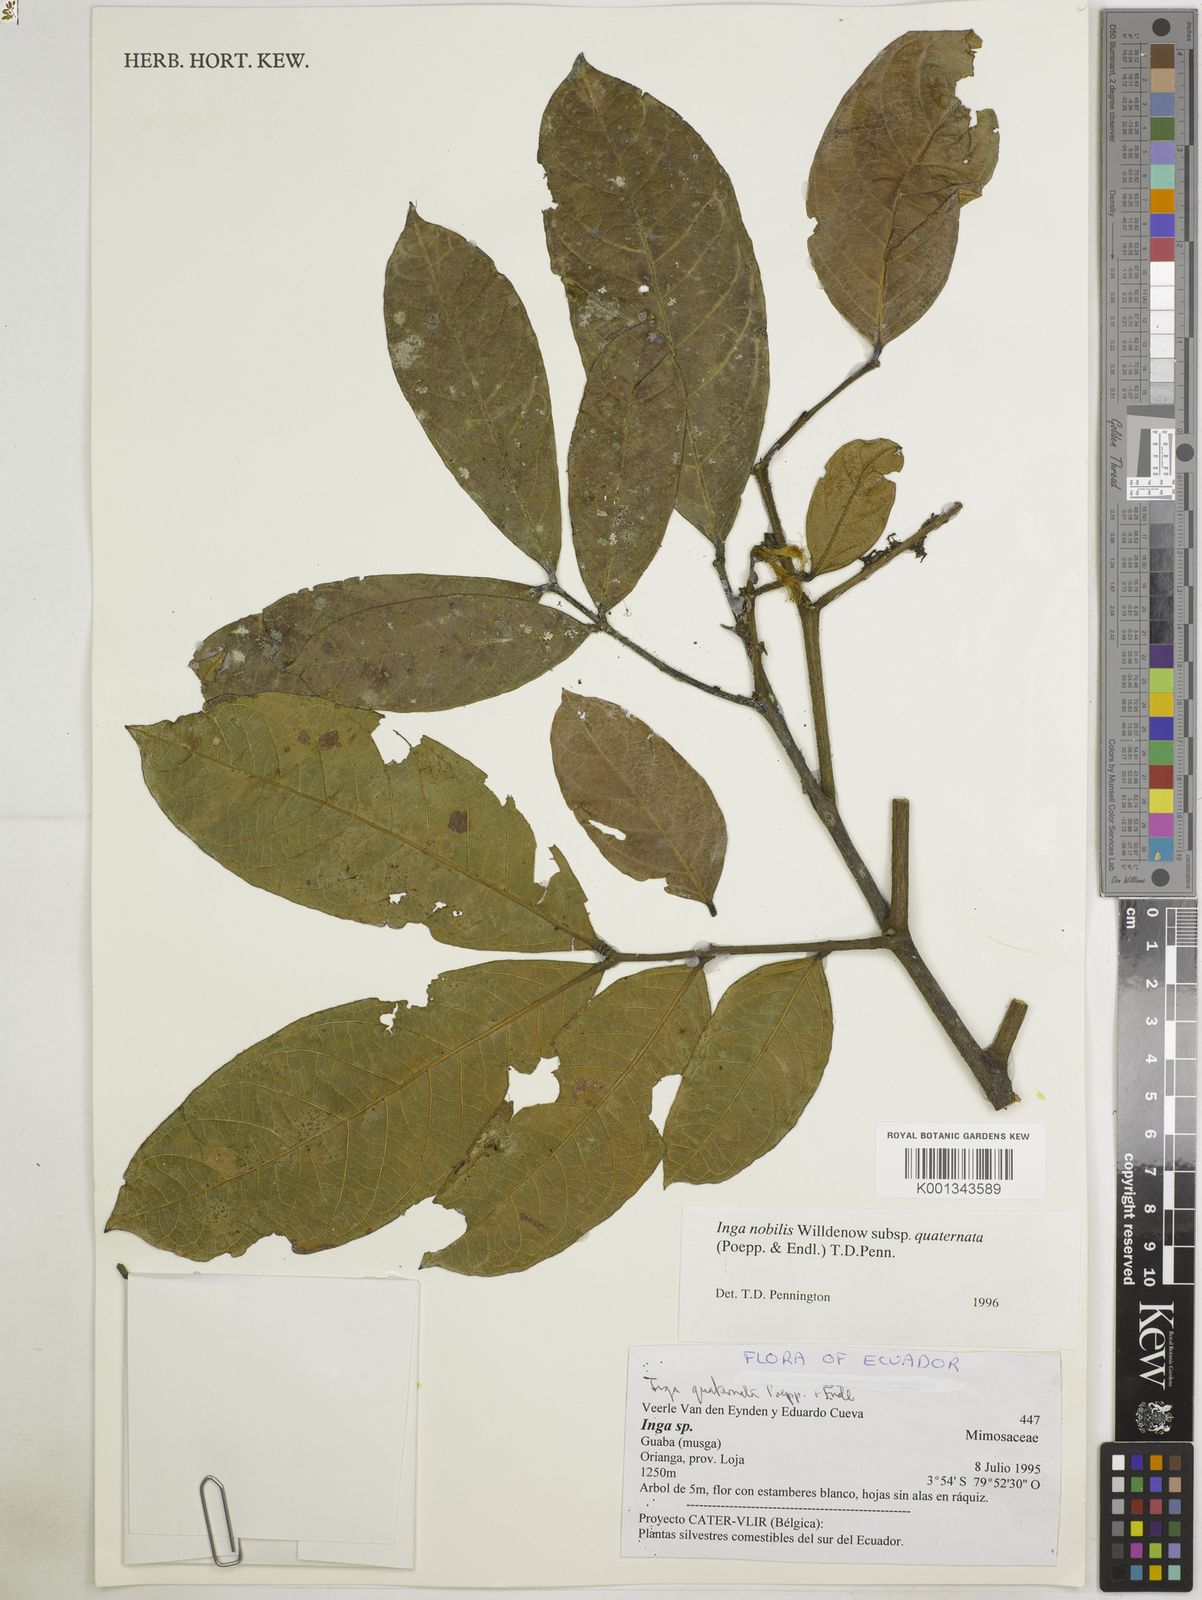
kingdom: Plantae
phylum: Tracheophyta
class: Magnoliopsida
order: Fabales
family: Fabaceae
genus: Inga
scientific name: Inga nobilis
